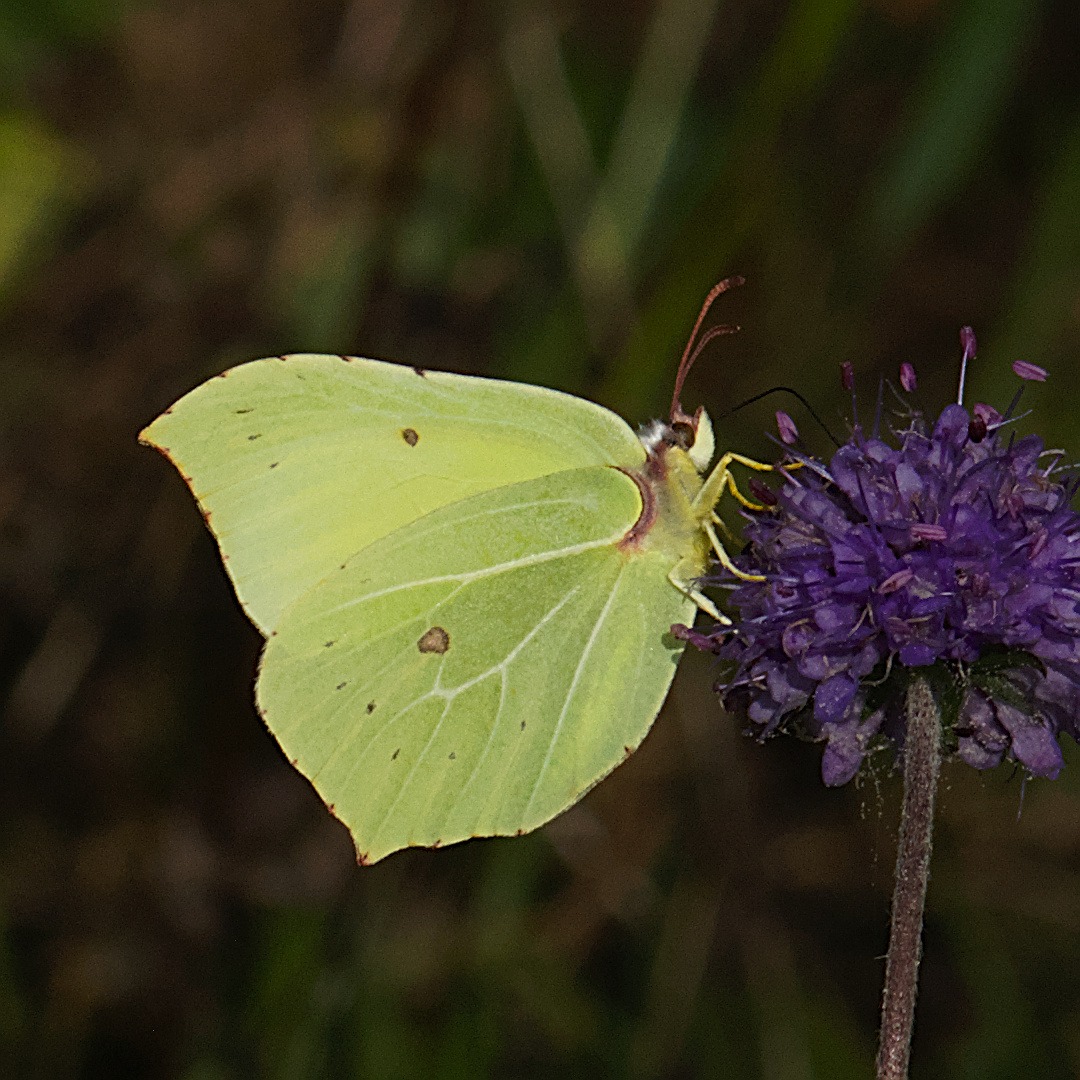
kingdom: Animalia
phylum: Arthropoda
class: Insecta
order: Lepidoptera
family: Pieridae
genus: Gonepteryx
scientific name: Gonepteryx rhamni
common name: Citronsommerfugl
